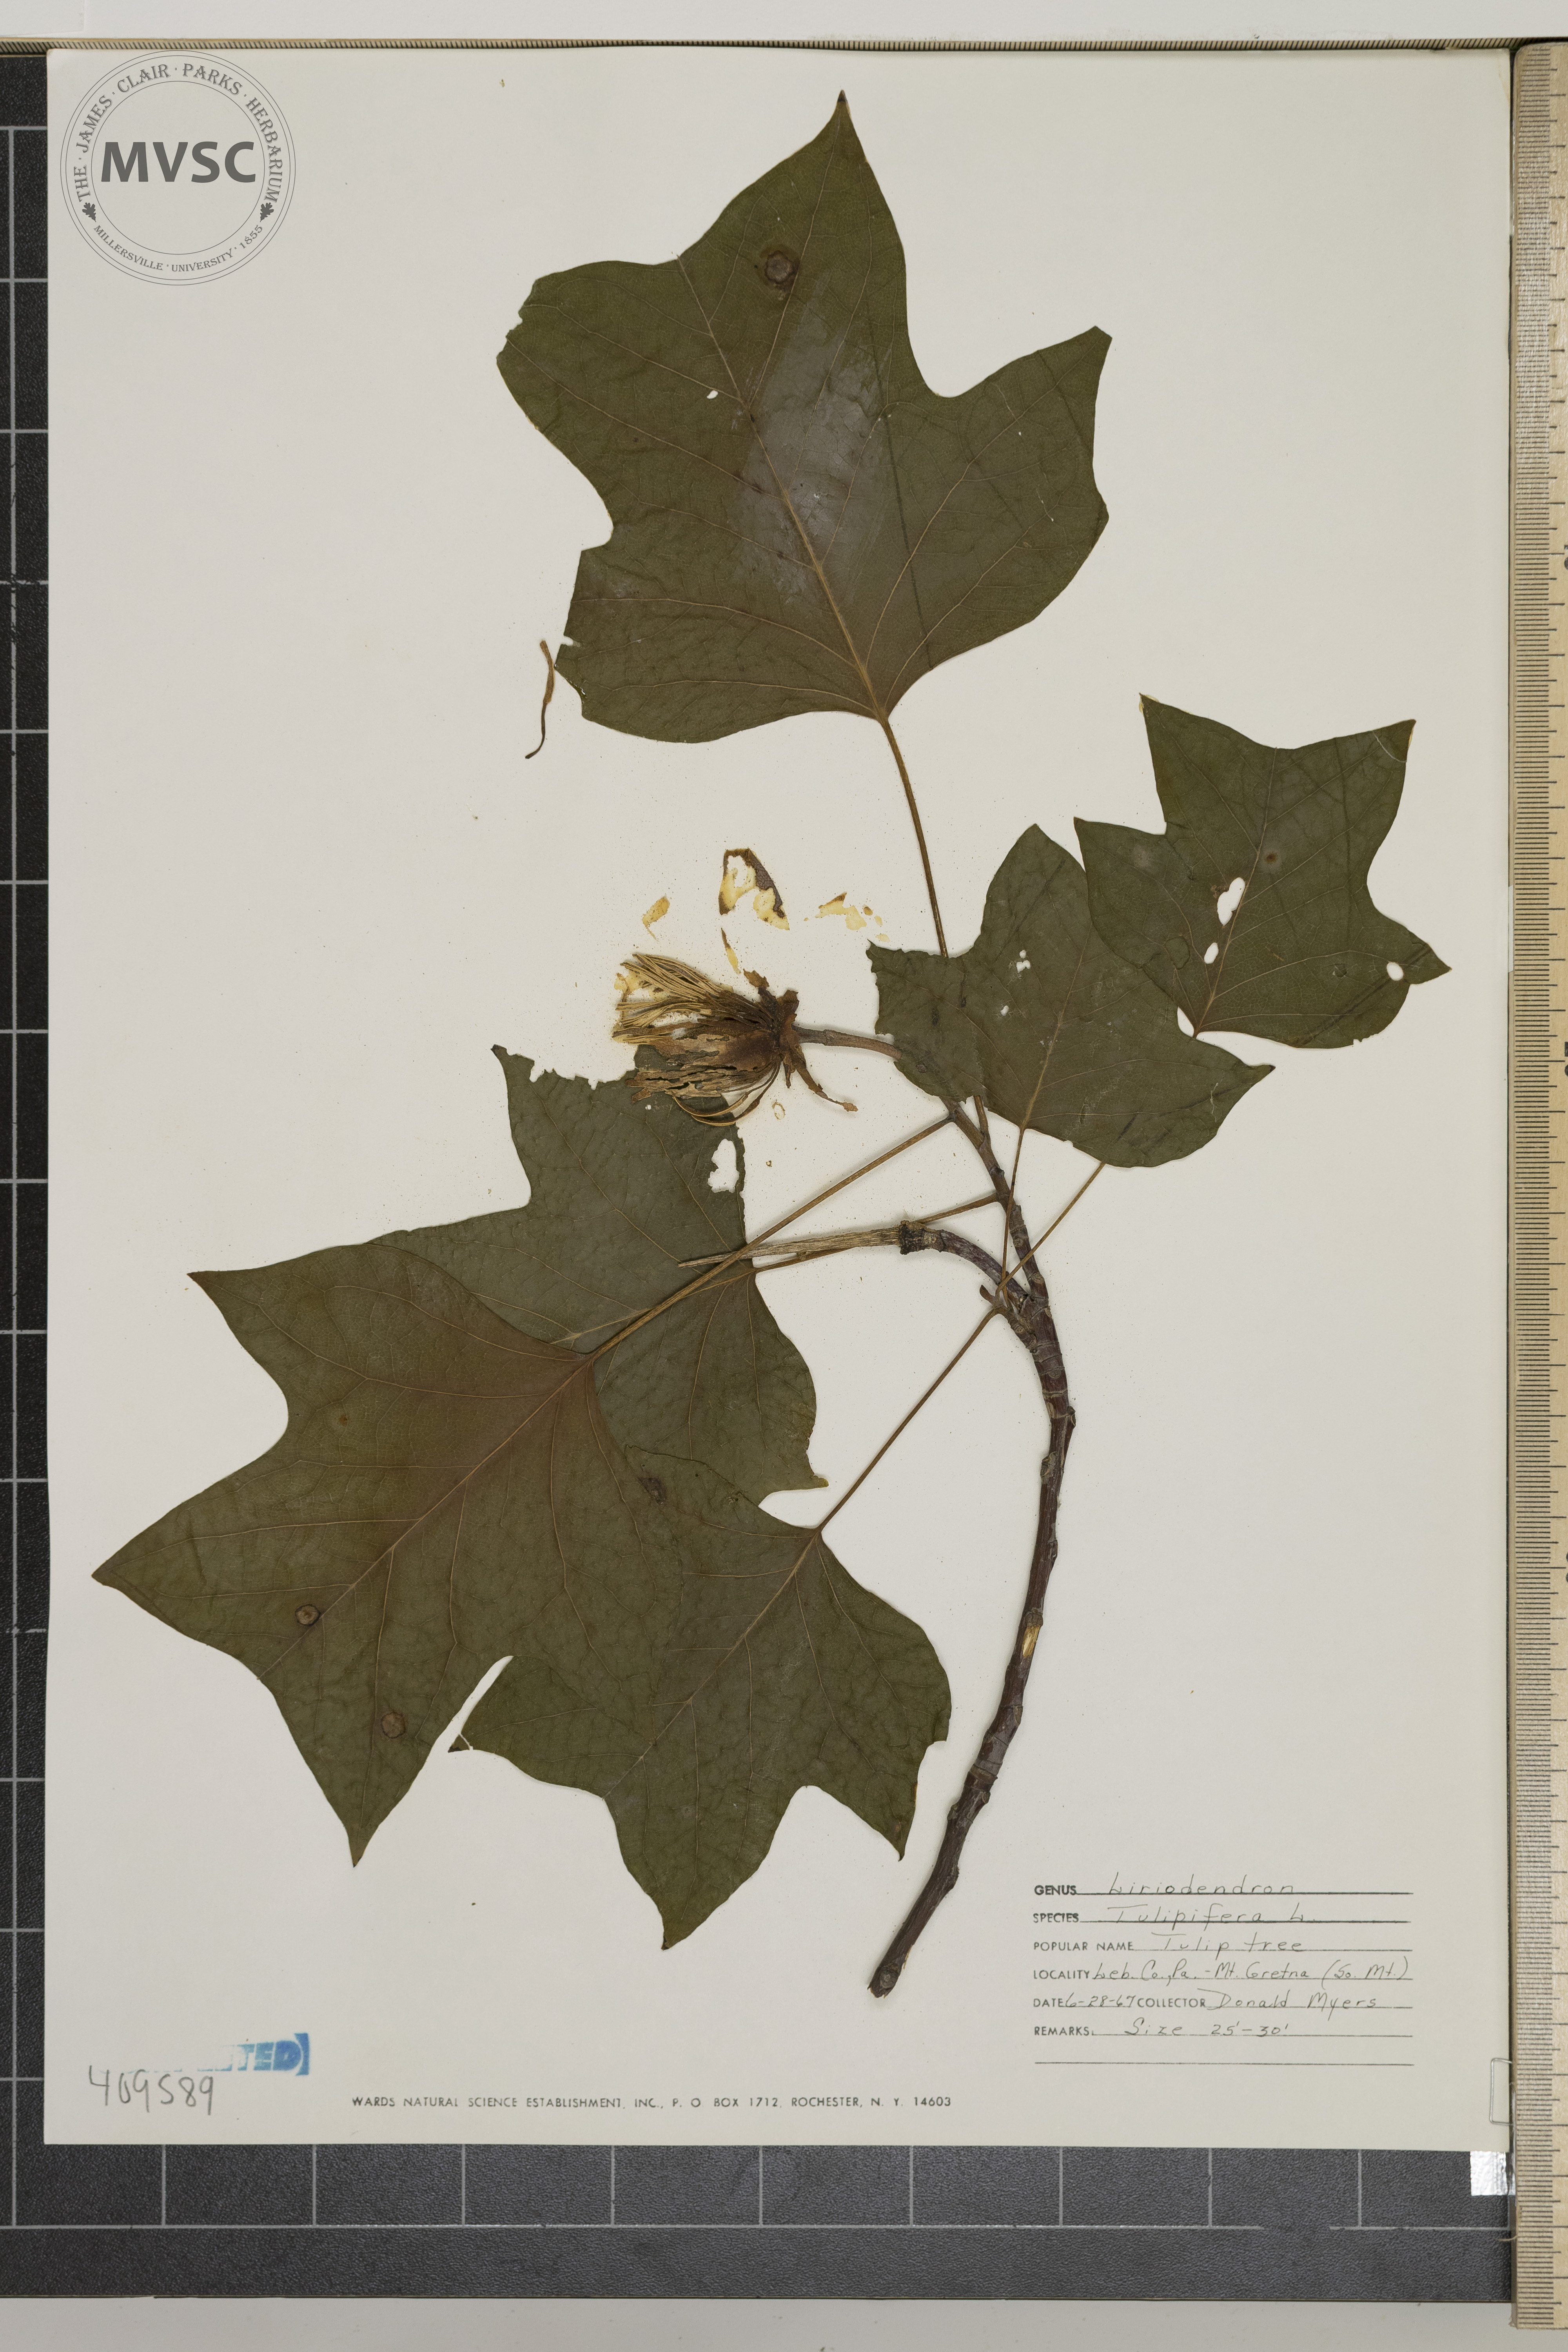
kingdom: Plantae
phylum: Tracheophyta
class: Magnoliopsida
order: Magnoliales
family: Magnoliaceae
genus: Liriodendron
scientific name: Liriodendron tulipifera
